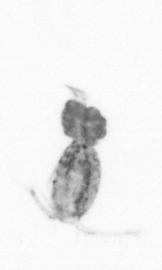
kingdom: Animalia
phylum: Arthropoda
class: Copepoda
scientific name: Copepoda
